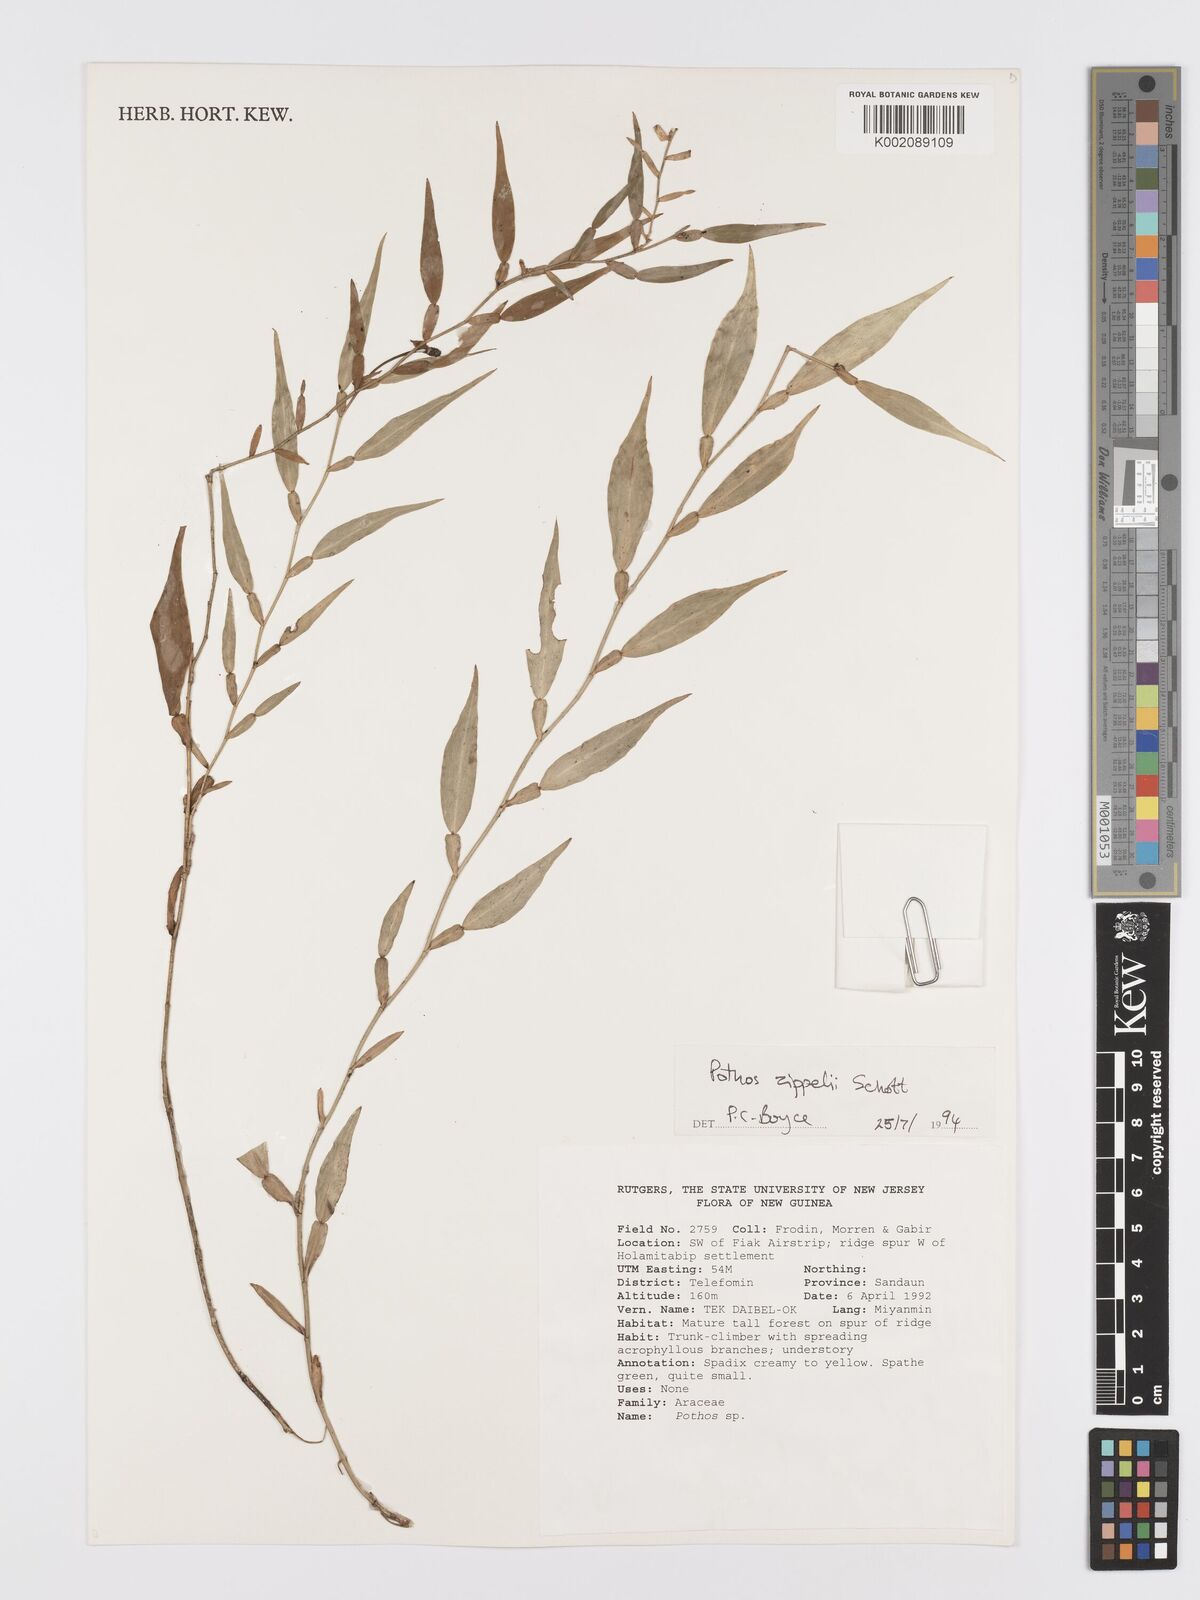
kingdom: Plantae
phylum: Tracheophyta
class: Liliopsida
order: Alismatales
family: Araceae
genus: Pothos
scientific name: Pothos zippelii
